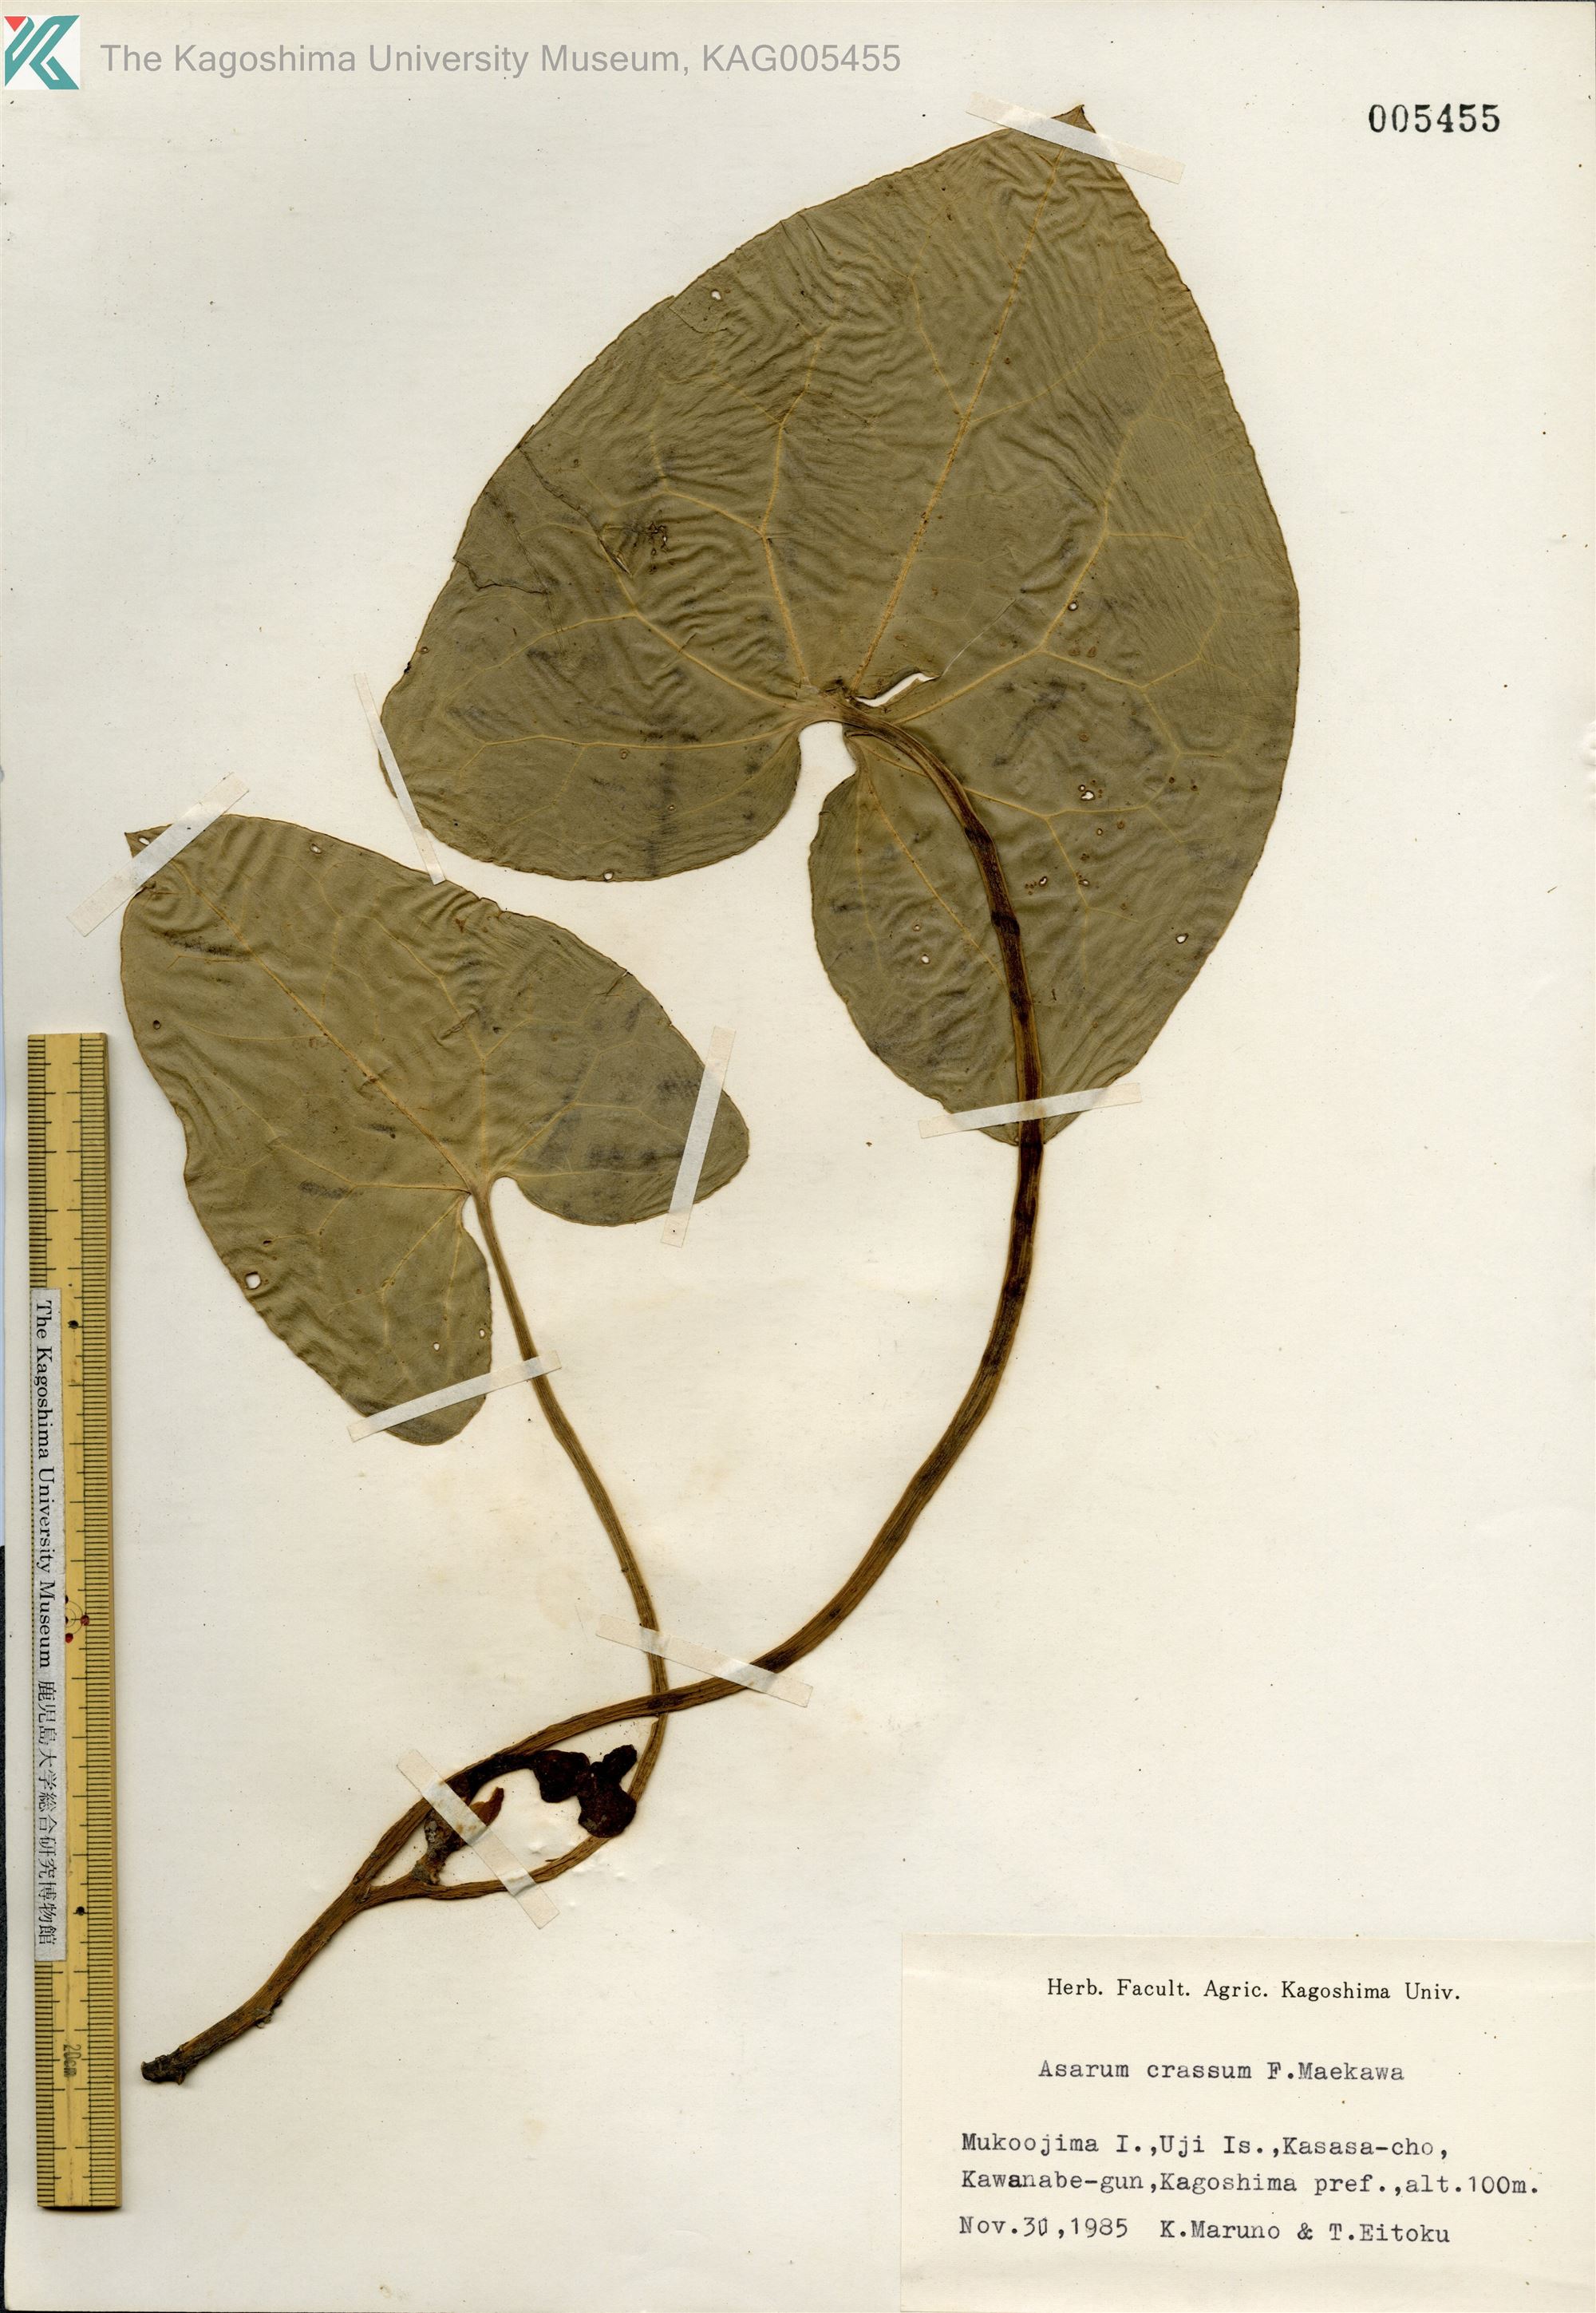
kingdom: Plantae
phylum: Tracheophyta
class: Magnoliopsida
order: Piperales
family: Aristolochiaceae
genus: Asarum
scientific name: Asarum crassum
